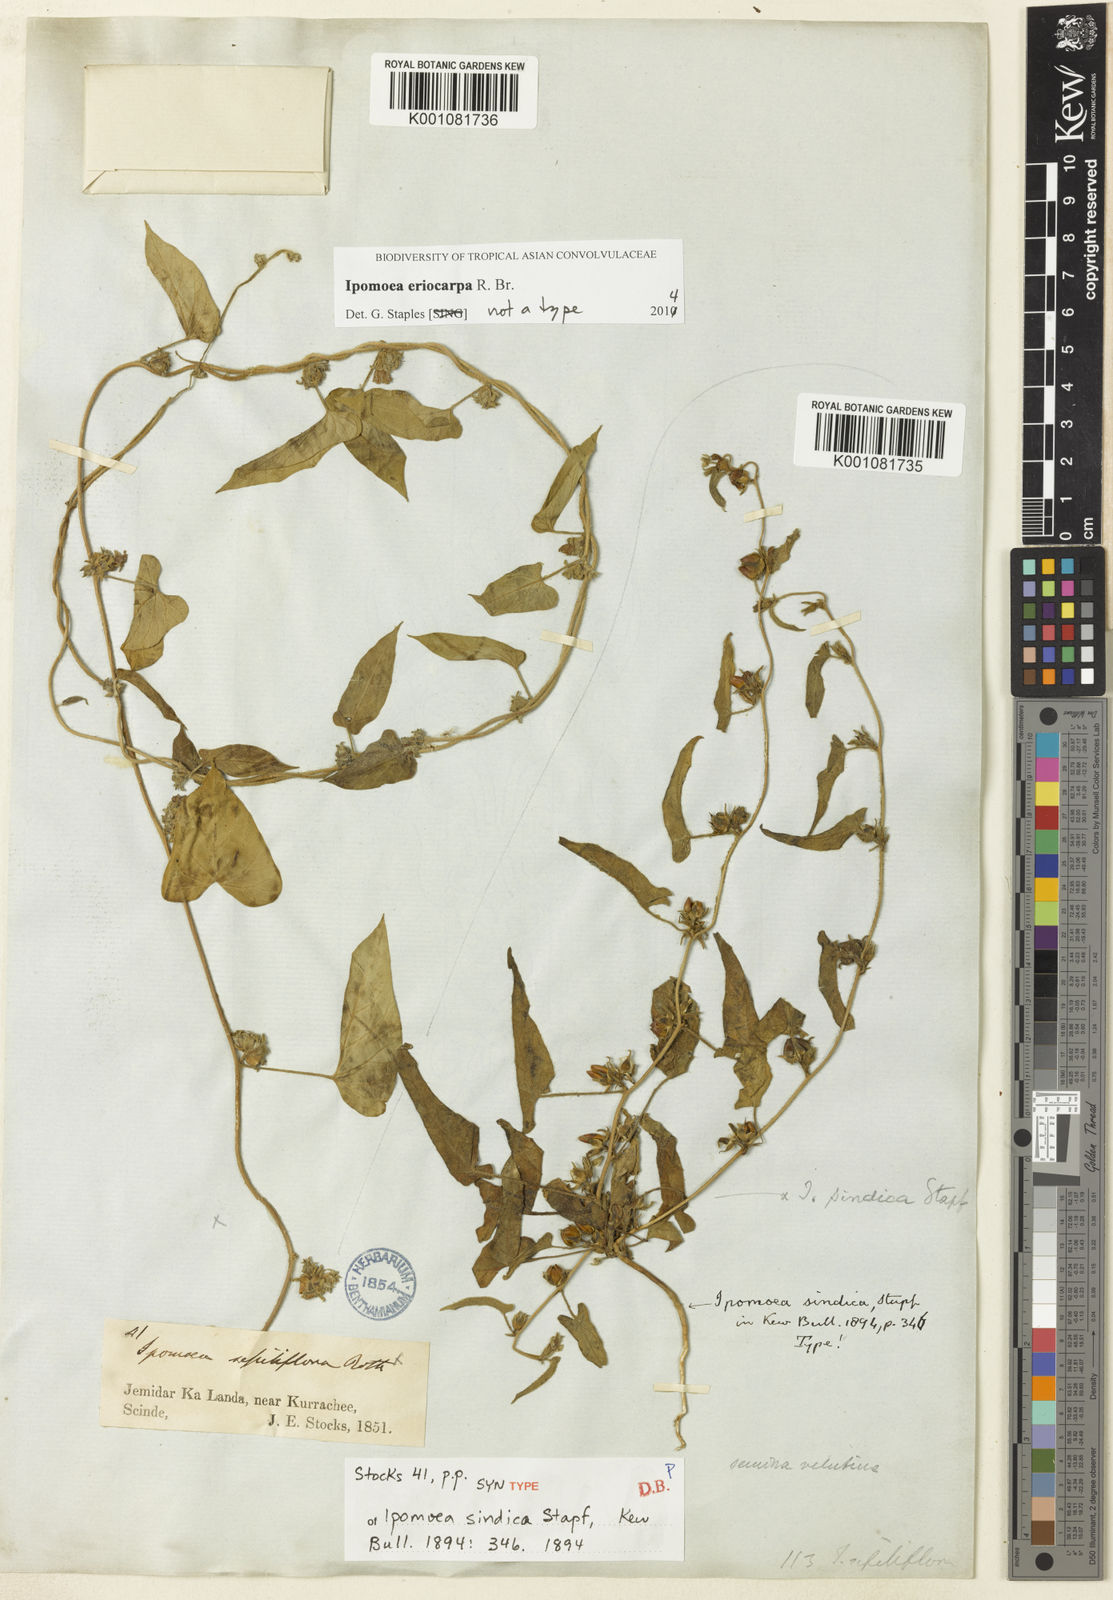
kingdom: Plantae
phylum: Tracheophyta
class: Magnoliopsida
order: Solanales
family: Convolvulaceae
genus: Ipomoea
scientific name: Ipomoea eriocarpa
